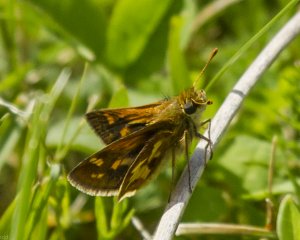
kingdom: Animalia
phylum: Arthropoda
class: Insecta
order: Lepidoptera
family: Hesperiidae
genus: Polites
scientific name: Polites coras
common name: Peck's Skipper
